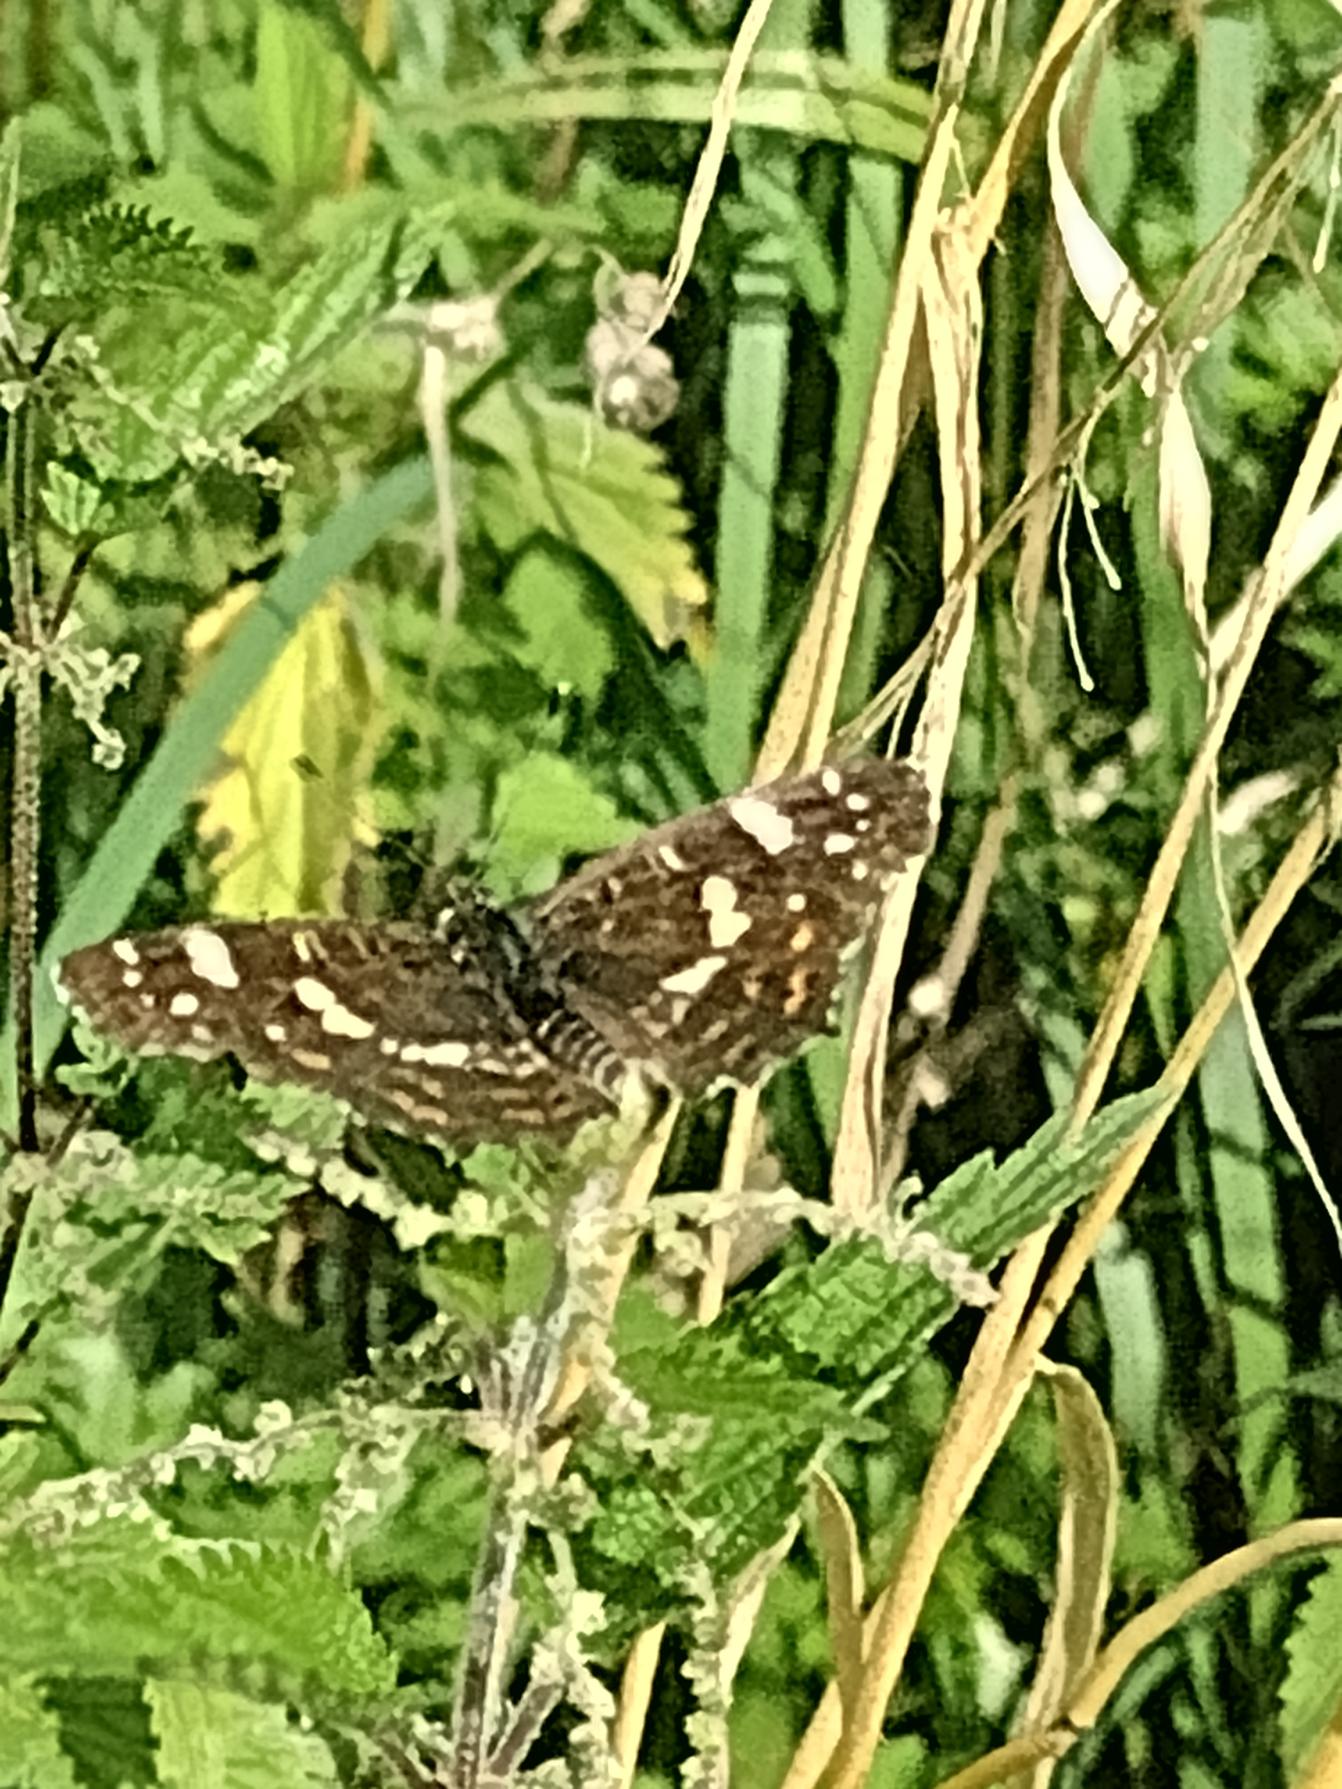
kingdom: Animalia
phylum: Arthropoda
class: Insecta
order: Lepidoptera
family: Nymphalidae
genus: Araschnia
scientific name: Araschnia levana
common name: Nældesommerfugl
